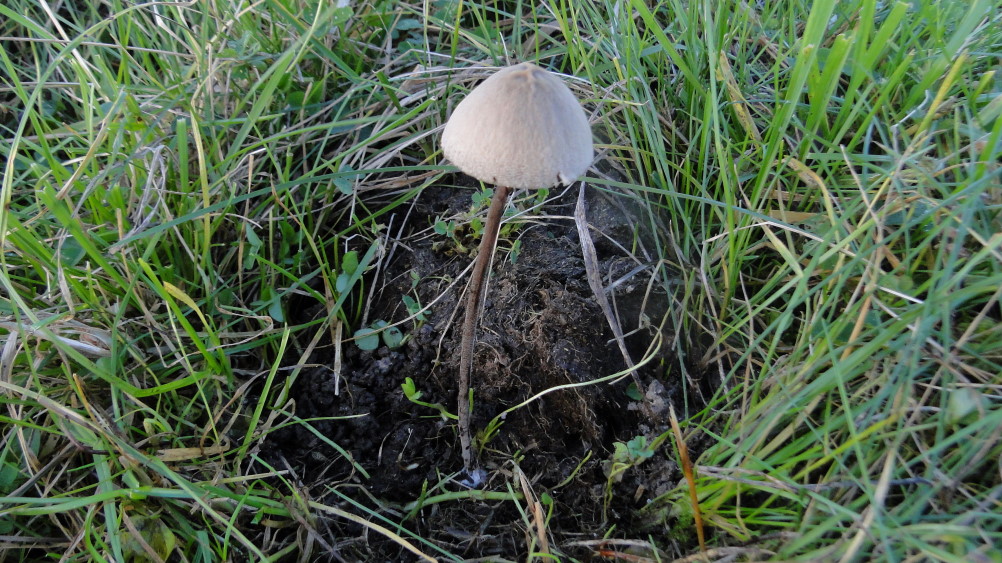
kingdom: Fungi
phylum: Basidiomycota
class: Agaricomycetes
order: Agaricales
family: Bolbitiaceae
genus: Panaeolus
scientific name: Panaeolus acuminatus
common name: høj glanshat
